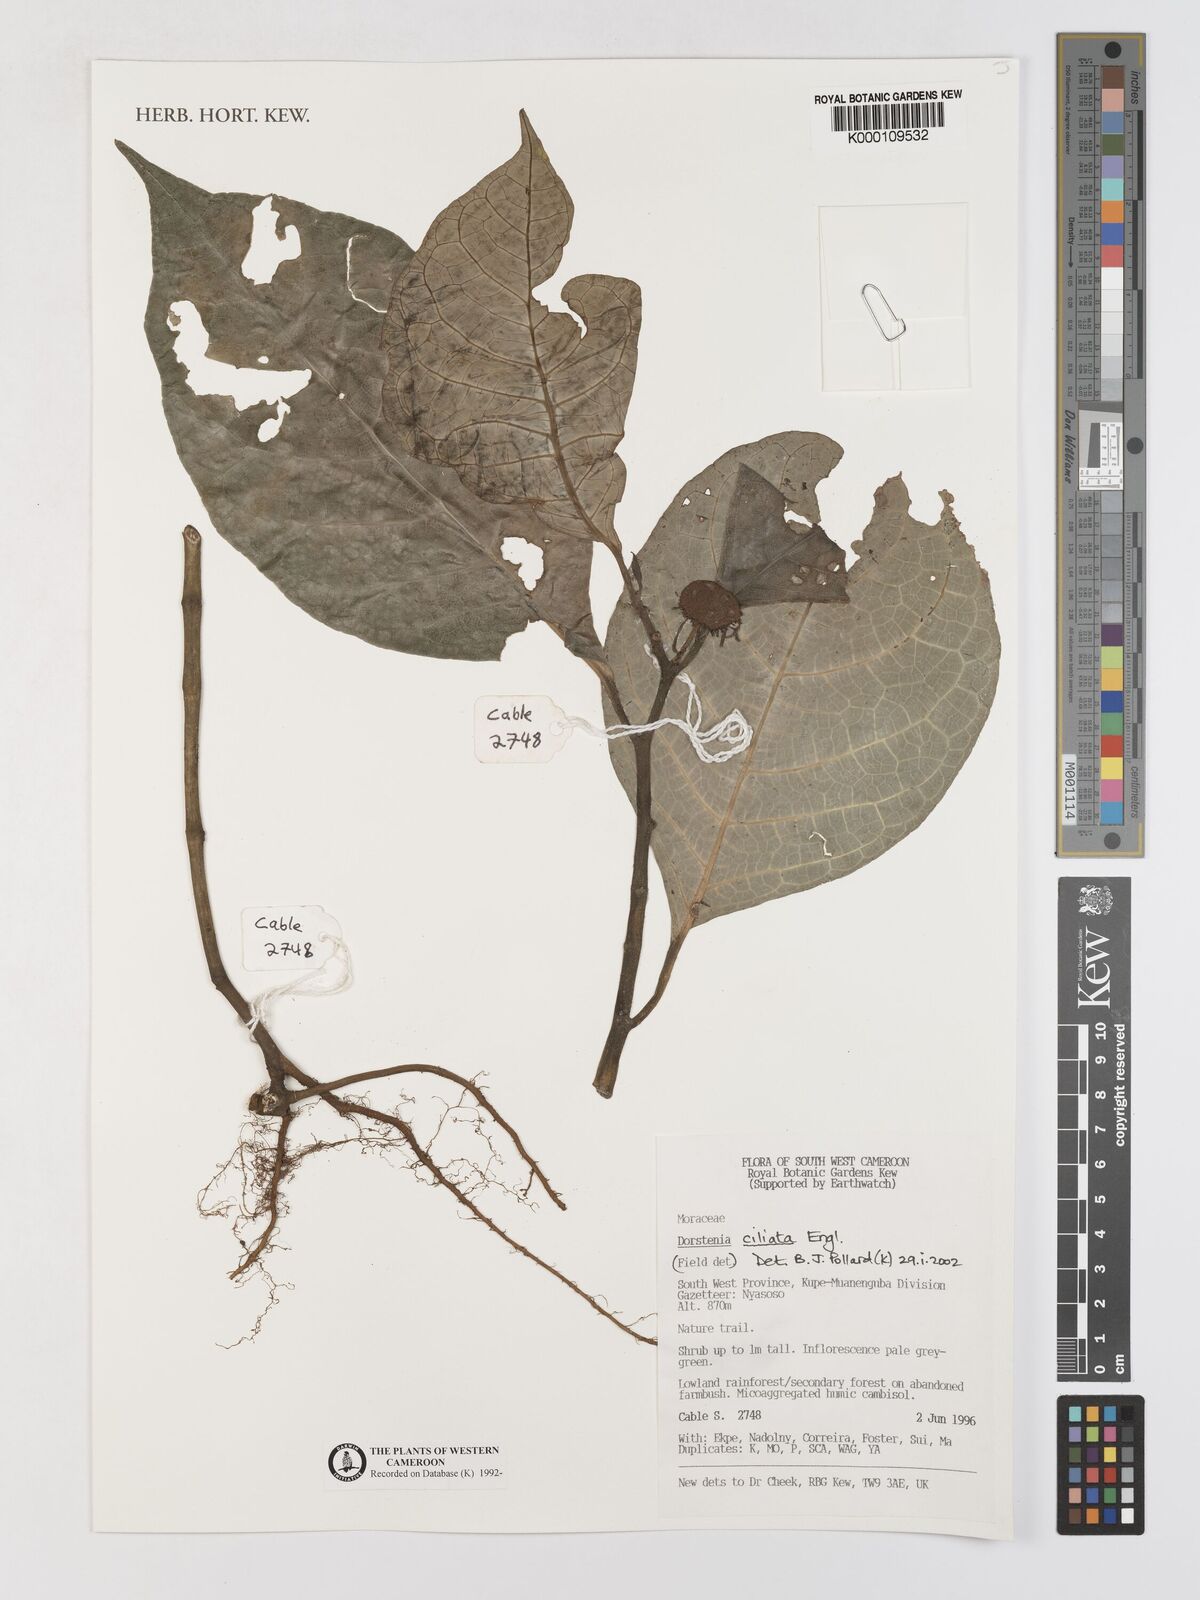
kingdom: Plantae
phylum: Tracheophyta
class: Magnoliopsida
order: Rosales
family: Moraceae
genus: Dorstenia
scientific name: Dorstenia ciliata
